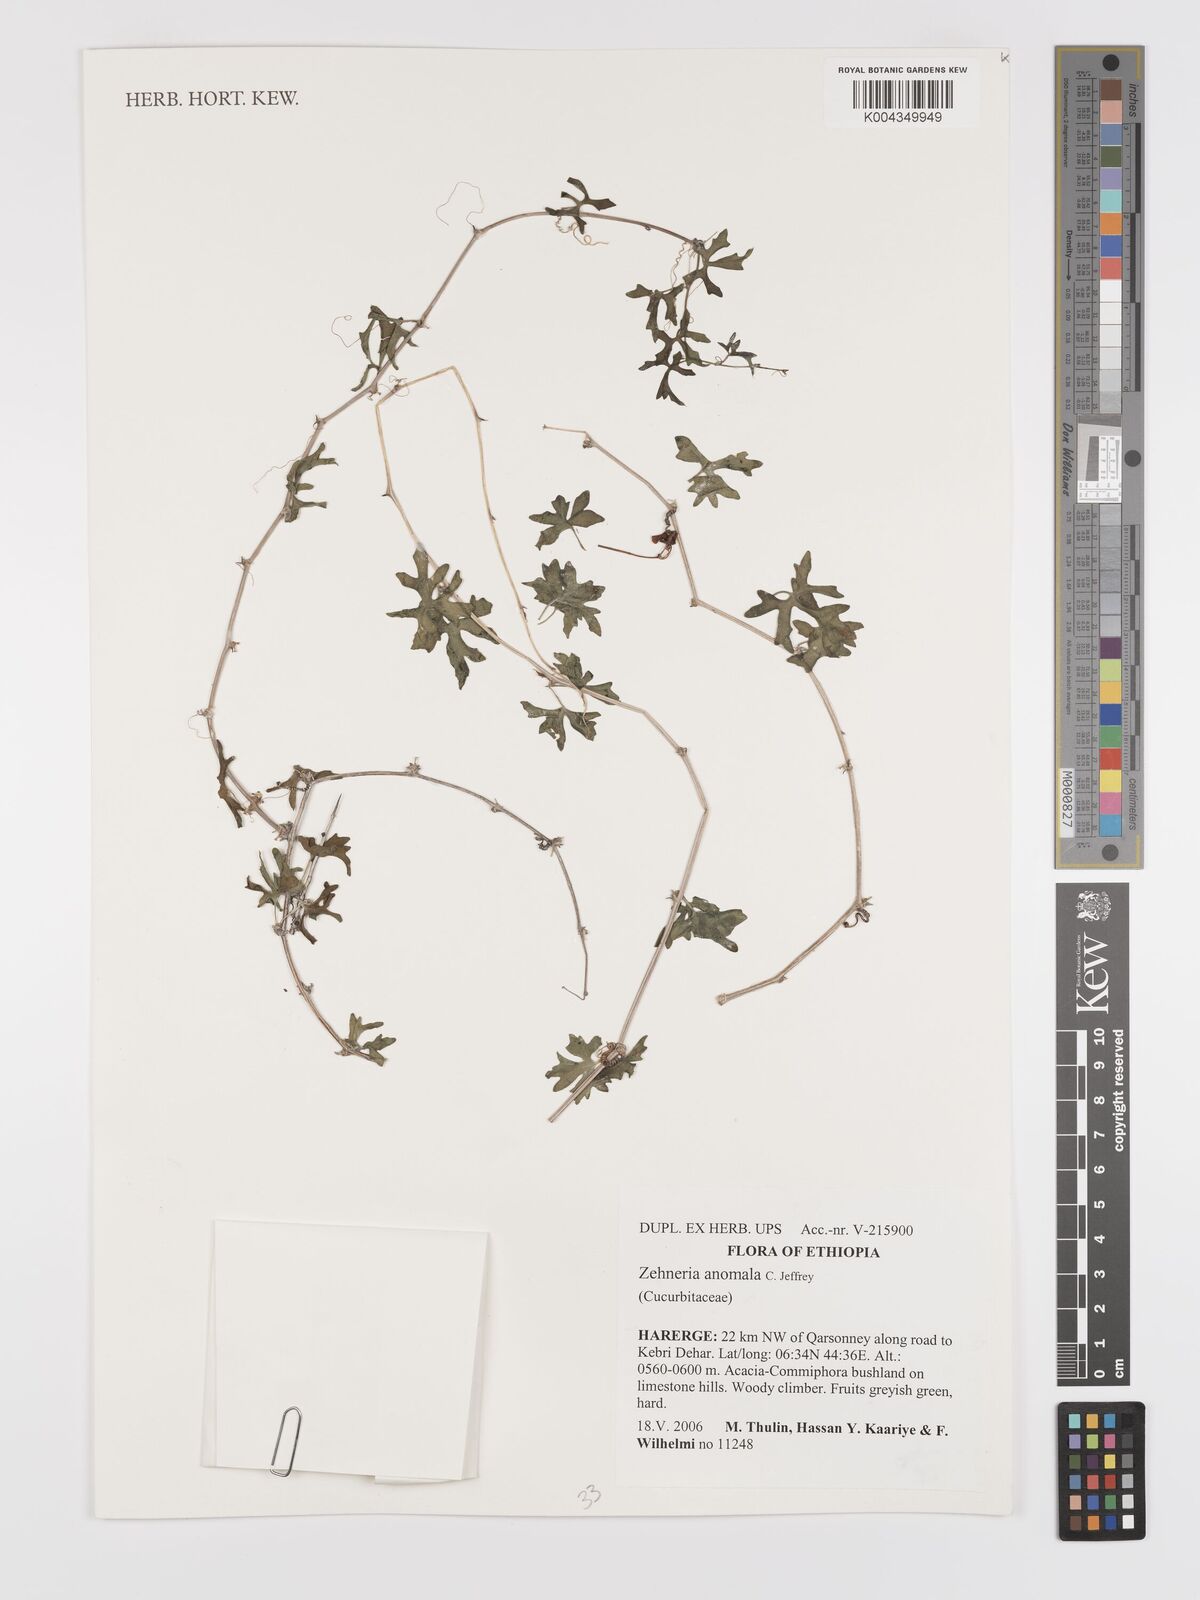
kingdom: Plantae
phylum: Tracheophyta
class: Magnoliopsida
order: Cucurbitales
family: Cucurbitaceae
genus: Zehneria
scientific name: Zehneria anomala
